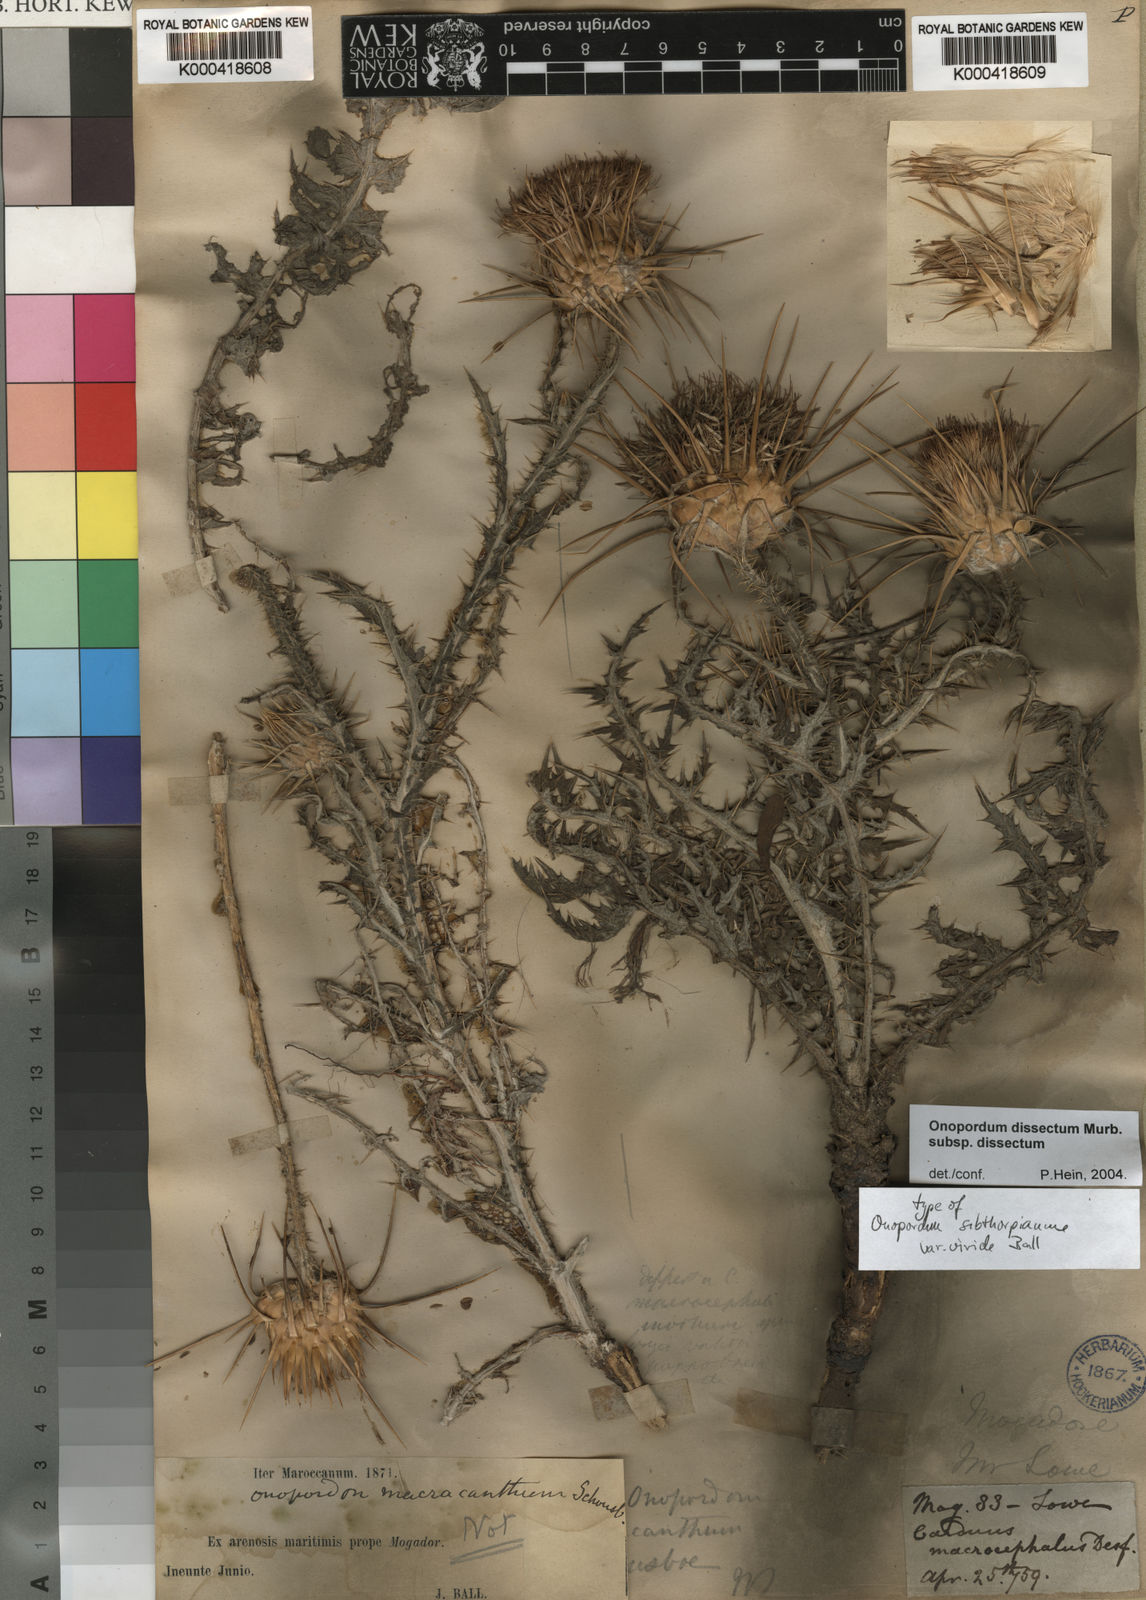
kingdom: Plantae
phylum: Tracheophyta
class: Magnoliopsida
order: Asterales
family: Asteraceae
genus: Onopordum
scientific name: Onopordum dissectum
